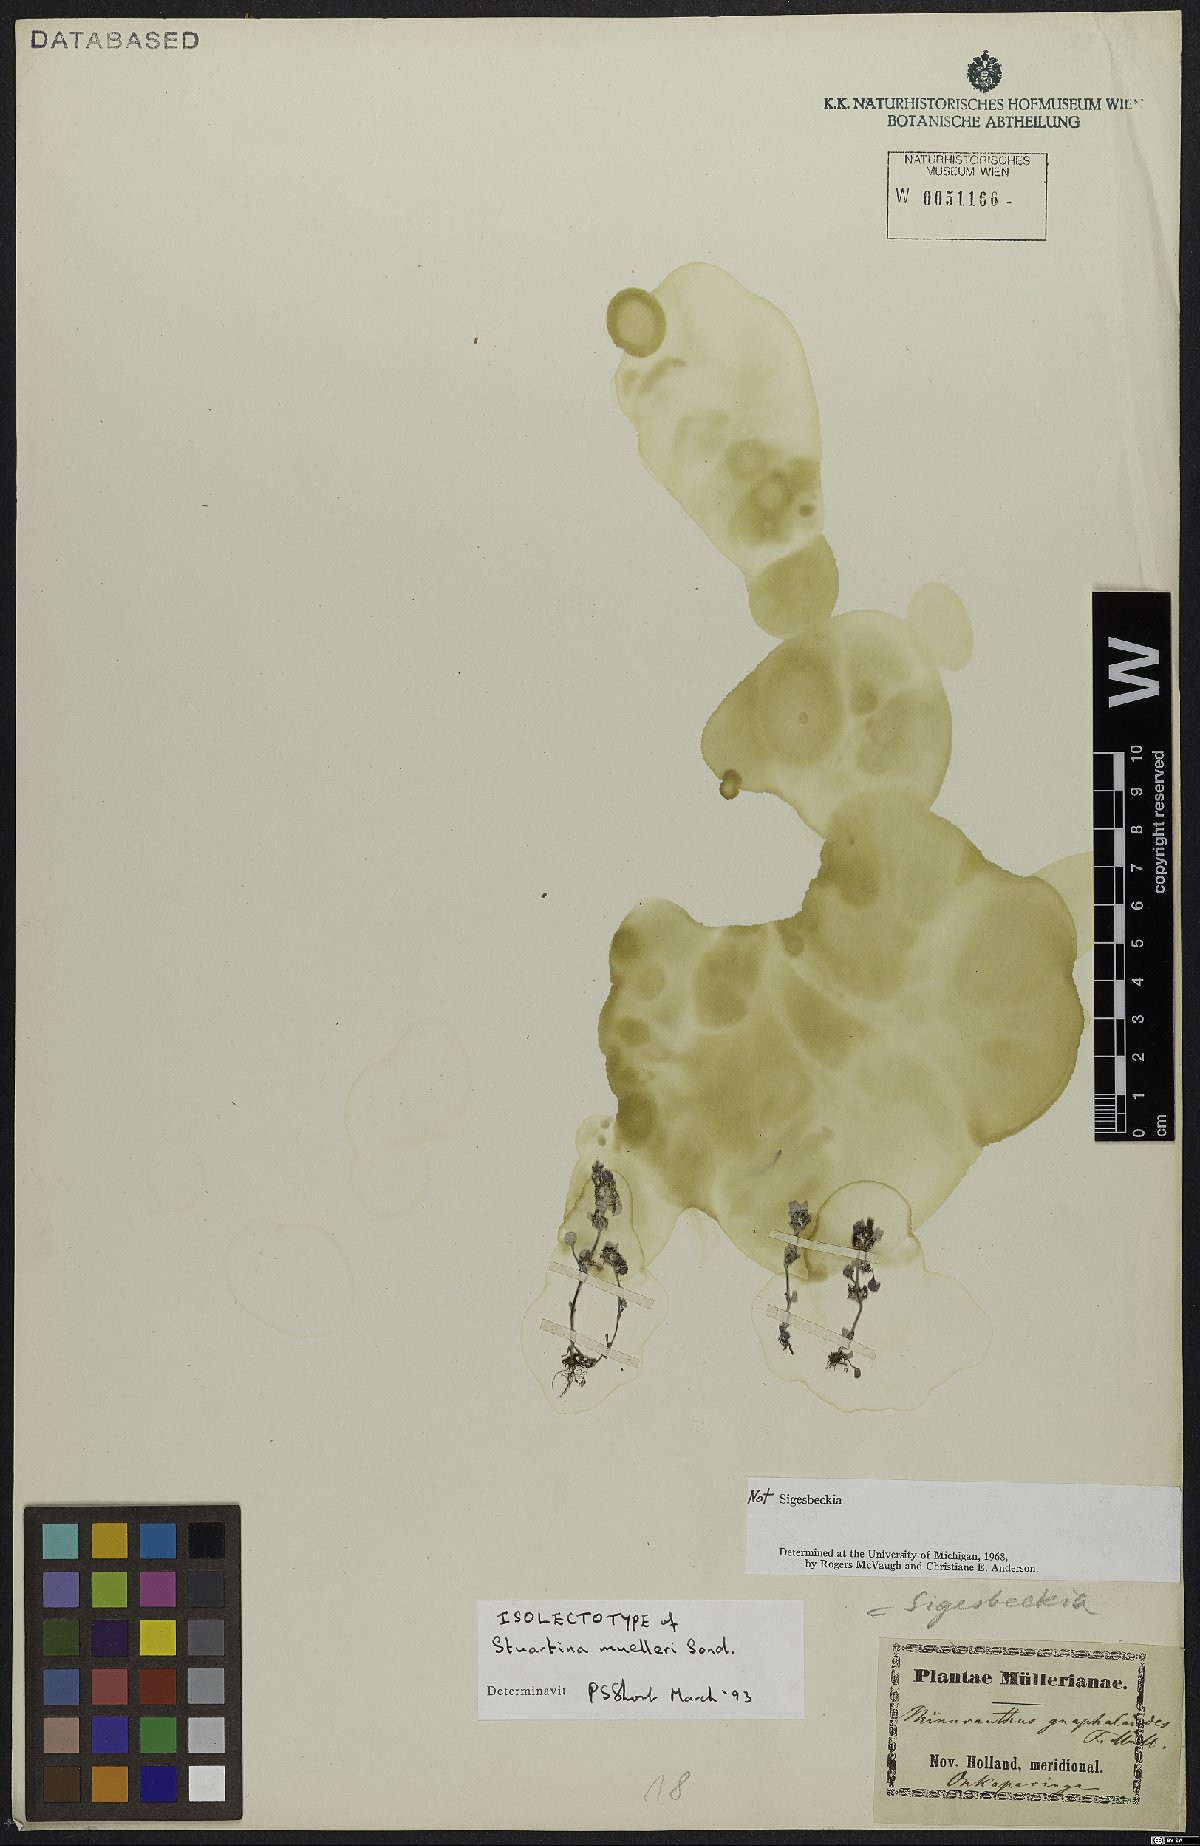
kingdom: Plantae
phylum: Tracheophyta
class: Magnoliopsida
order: Asterales
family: Asteraceae
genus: Stuartina
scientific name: Stuartina muelleri
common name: Spoon-leaved cudweed
